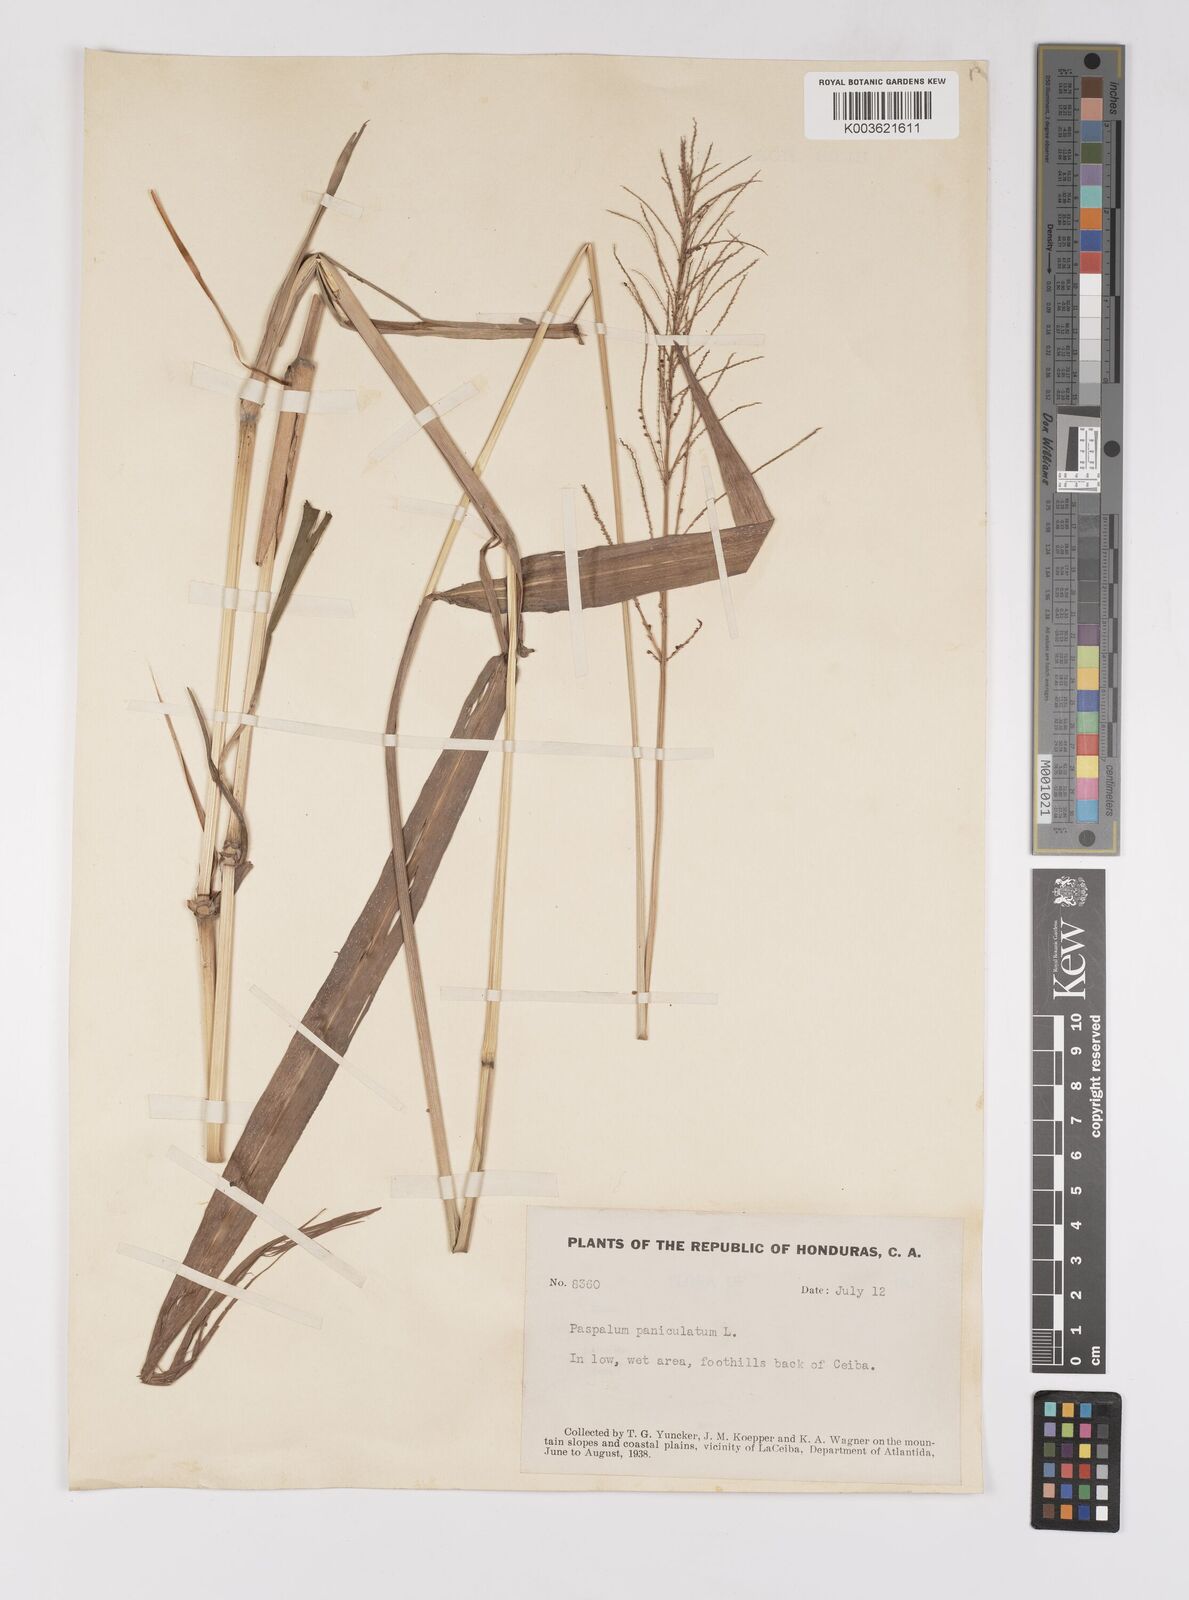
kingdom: Plantae
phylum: Tracheophyta
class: Liliopsida
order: Poales
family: Poaceae
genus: Paspalum
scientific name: Paspalum paniculatum
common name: Arrocillo
